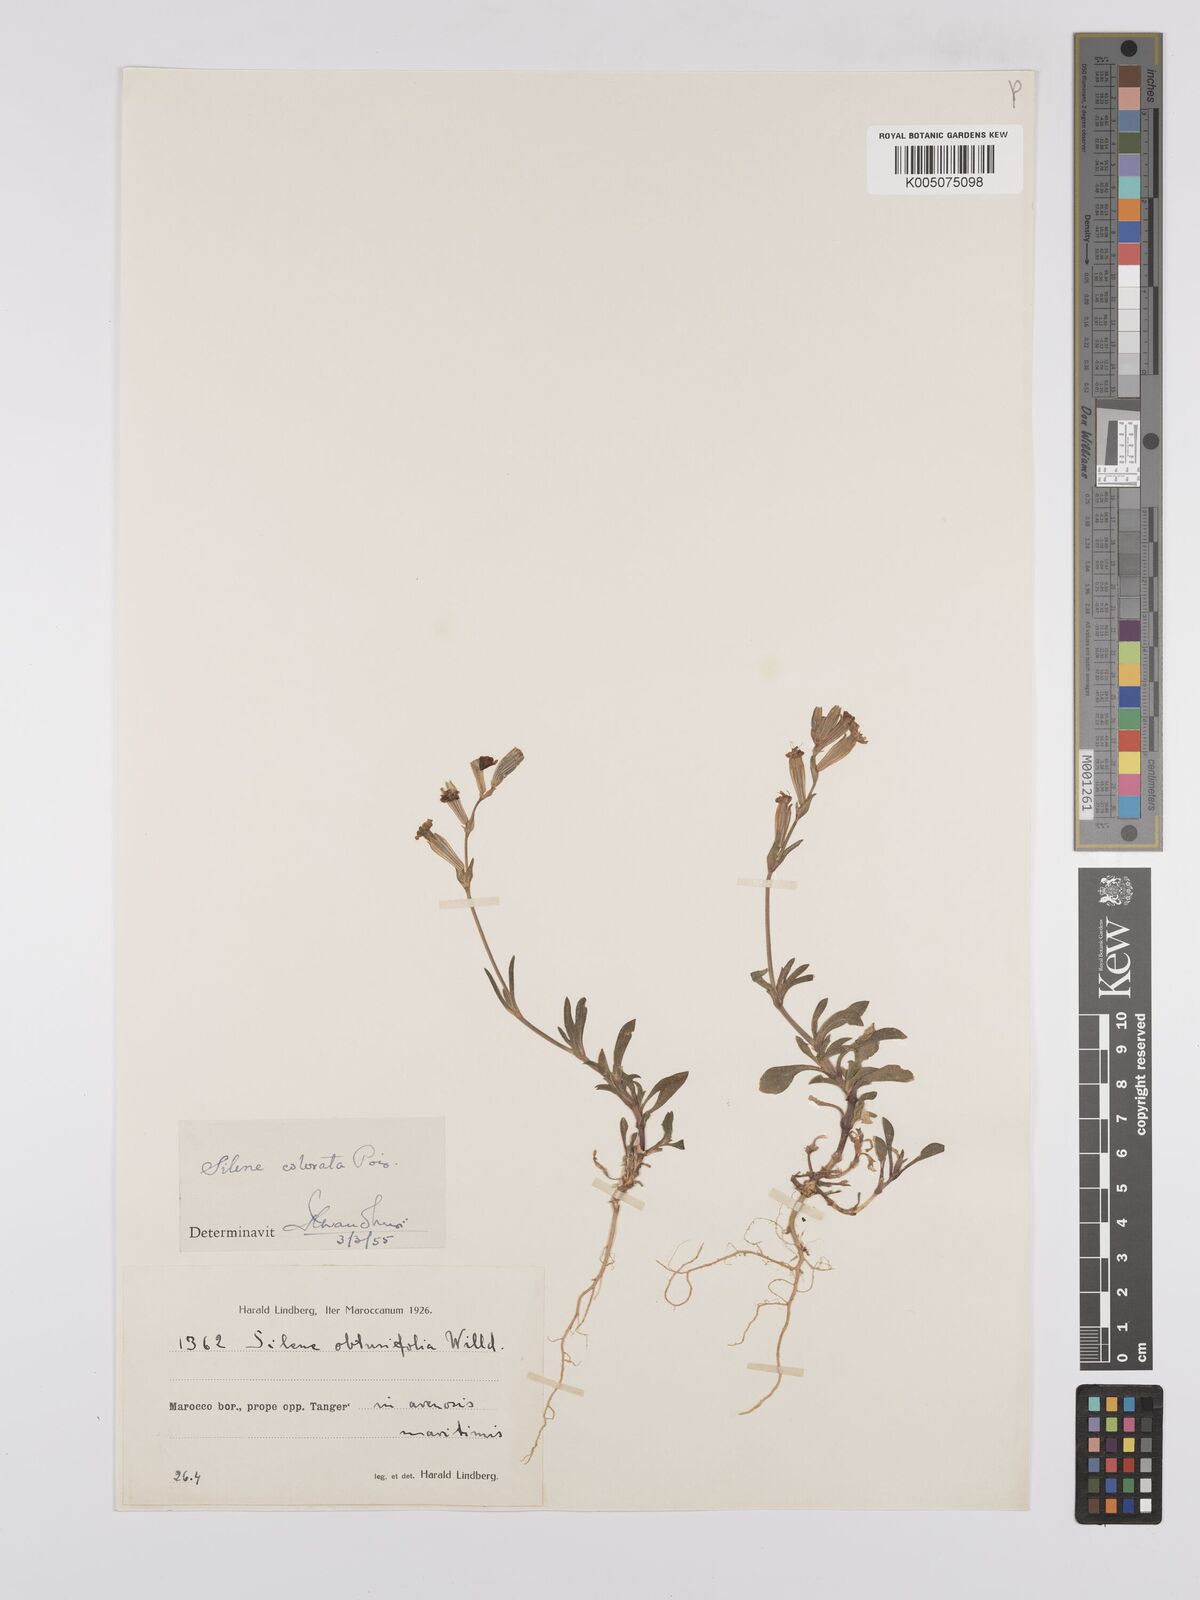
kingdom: Plantae
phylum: Tracheophyta
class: Magnoliopsida
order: Caryophyllales
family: Caryophyllaceae
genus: Silene
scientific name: Silene obtusifolia
